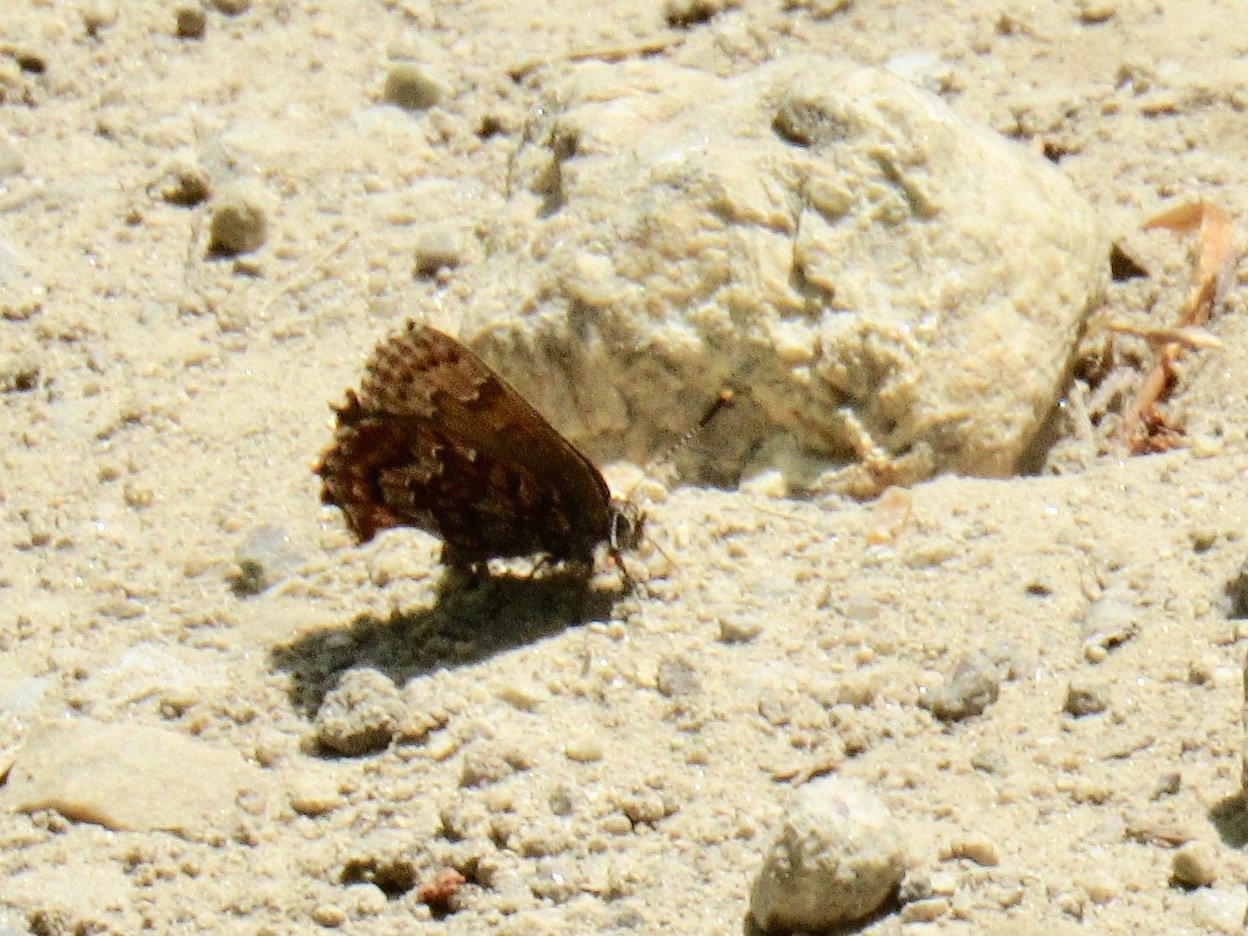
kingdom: Animalia
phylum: Arthropoda
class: Insecta
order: Lepidoptera
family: Lycaenidae
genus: Incisalia
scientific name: Incisalia niphon
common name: Eastern Pine Elfin
